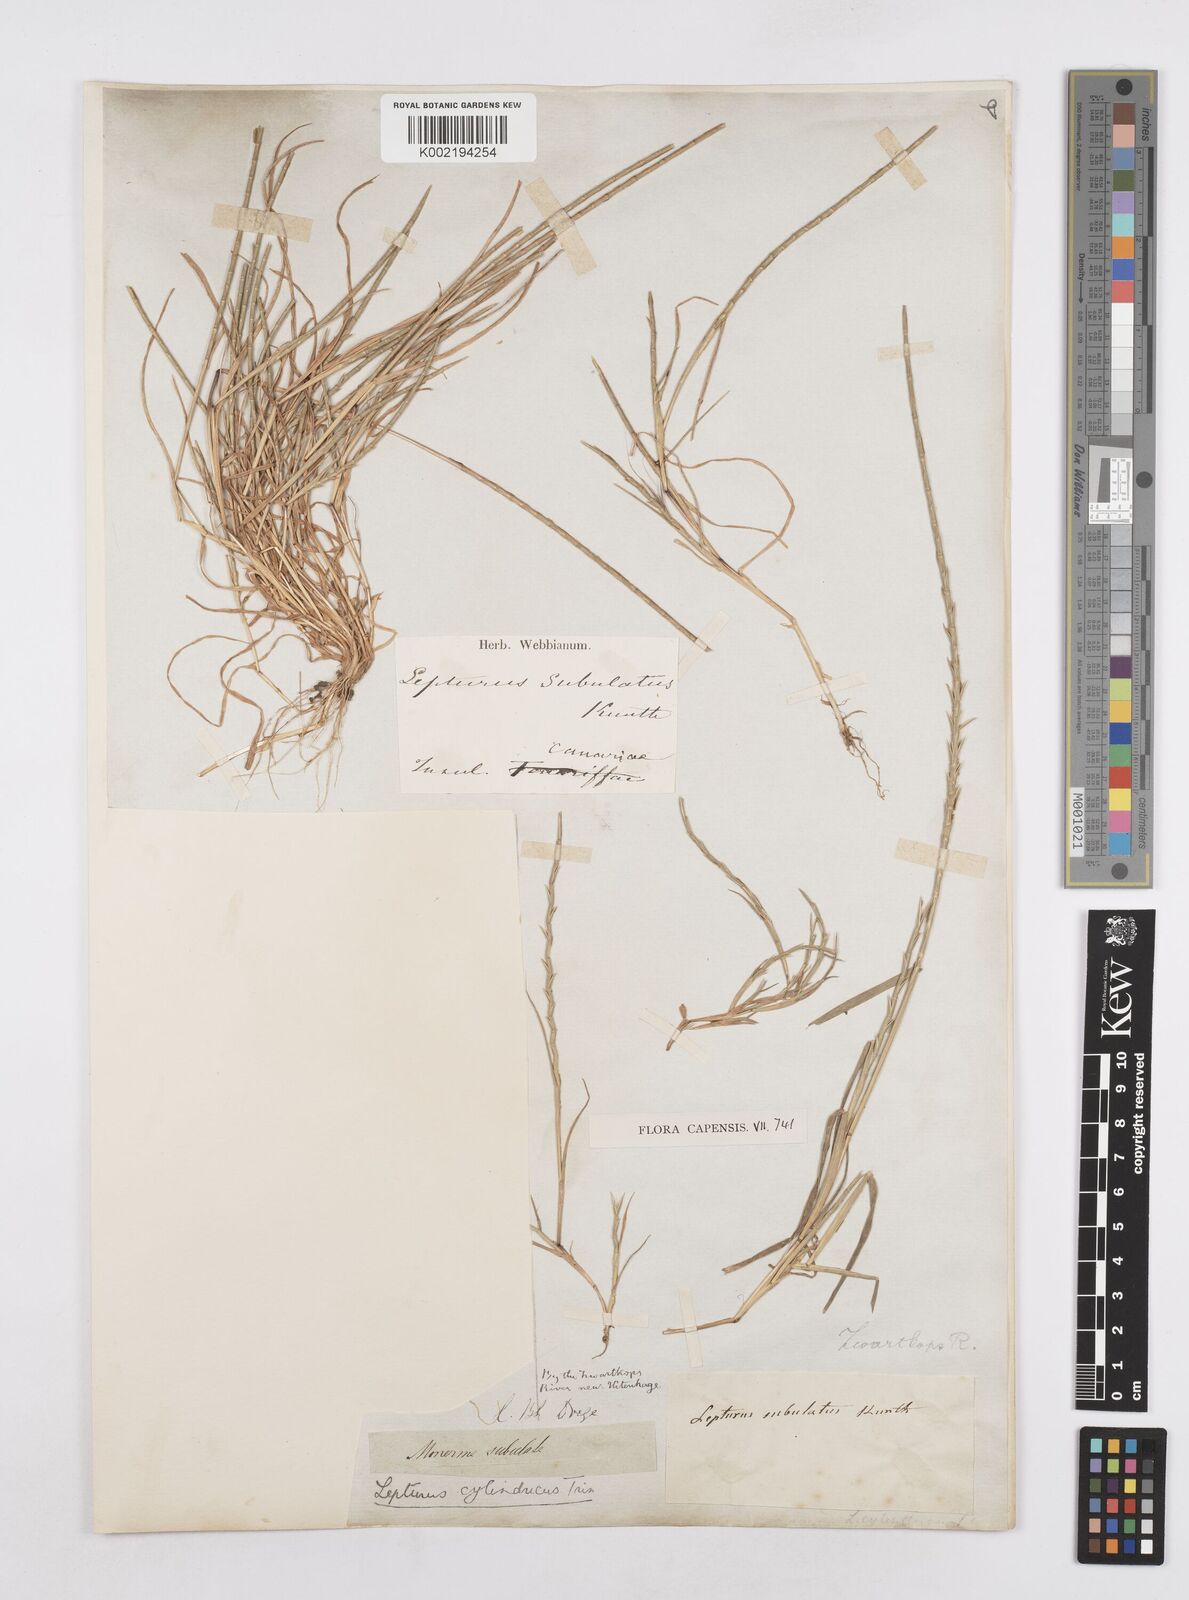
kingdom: Plantae
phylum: Tracheophyta
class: Liliopsida
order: Poales
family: Poaceae
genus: Parapholis
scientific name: Parapholis cylindrica
